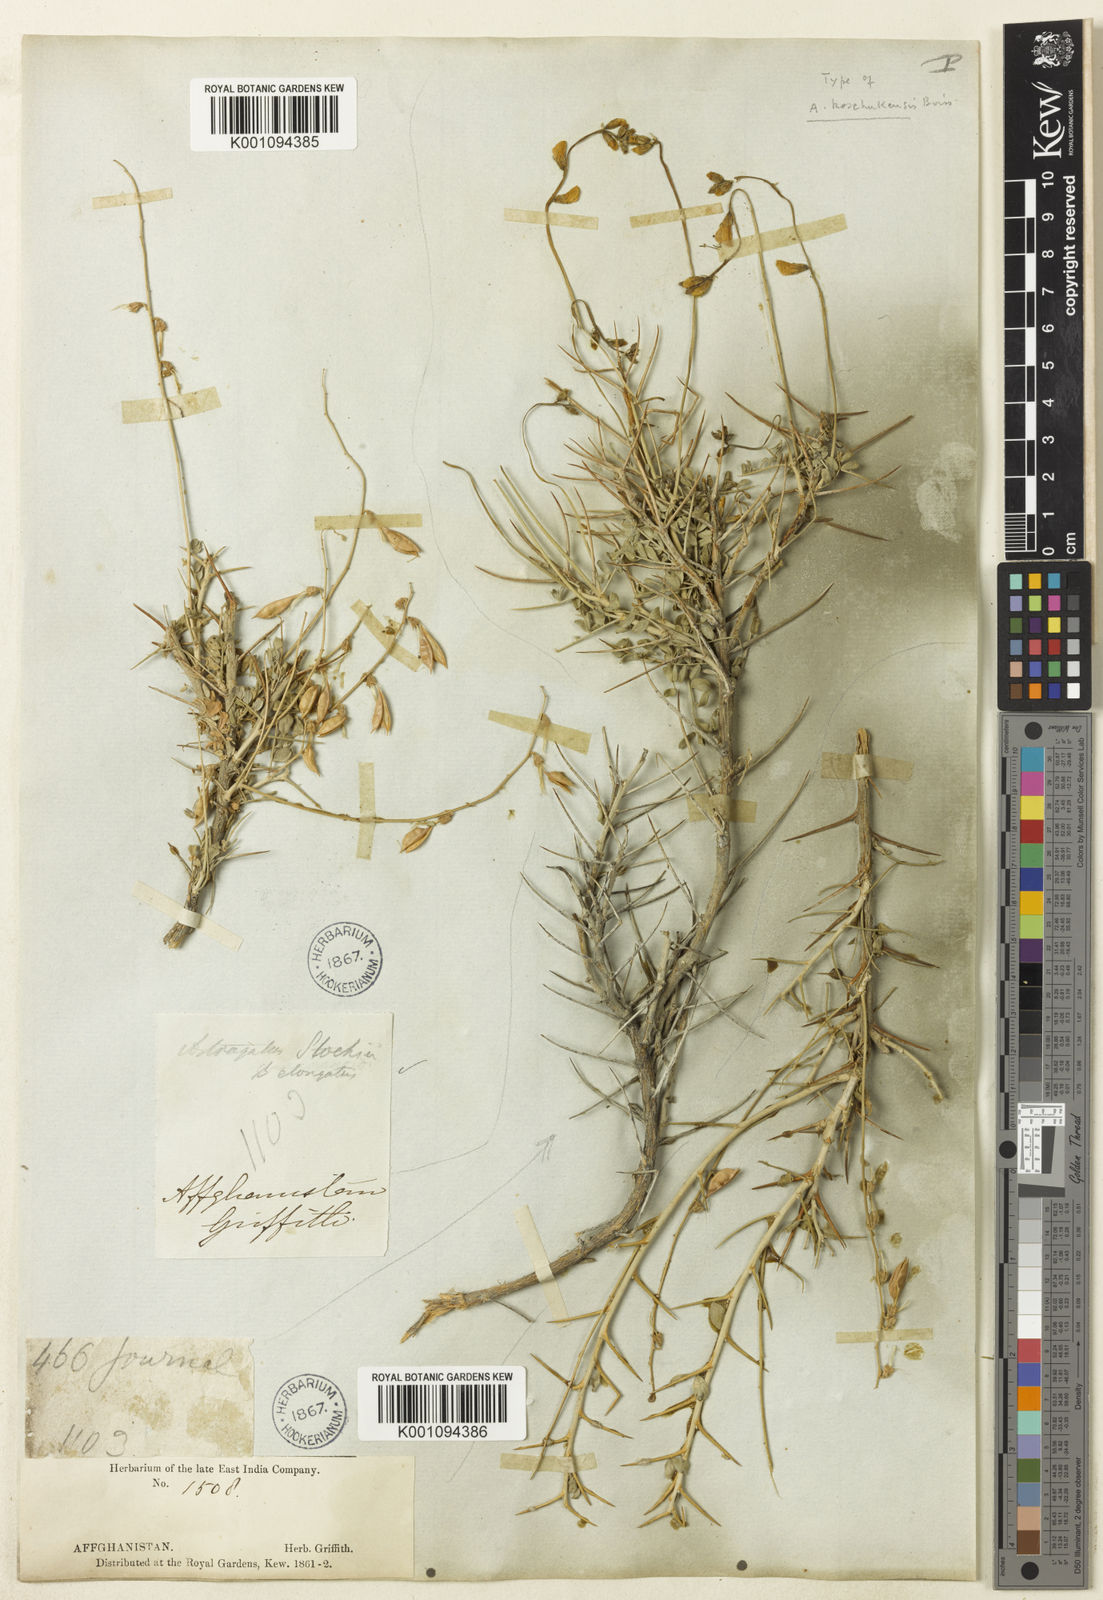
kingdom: Plantae
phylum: Tracheophyta
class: Magnoliopsida
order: Fabales
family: Fabaceae
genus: Astragalus
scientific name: Astragalus
